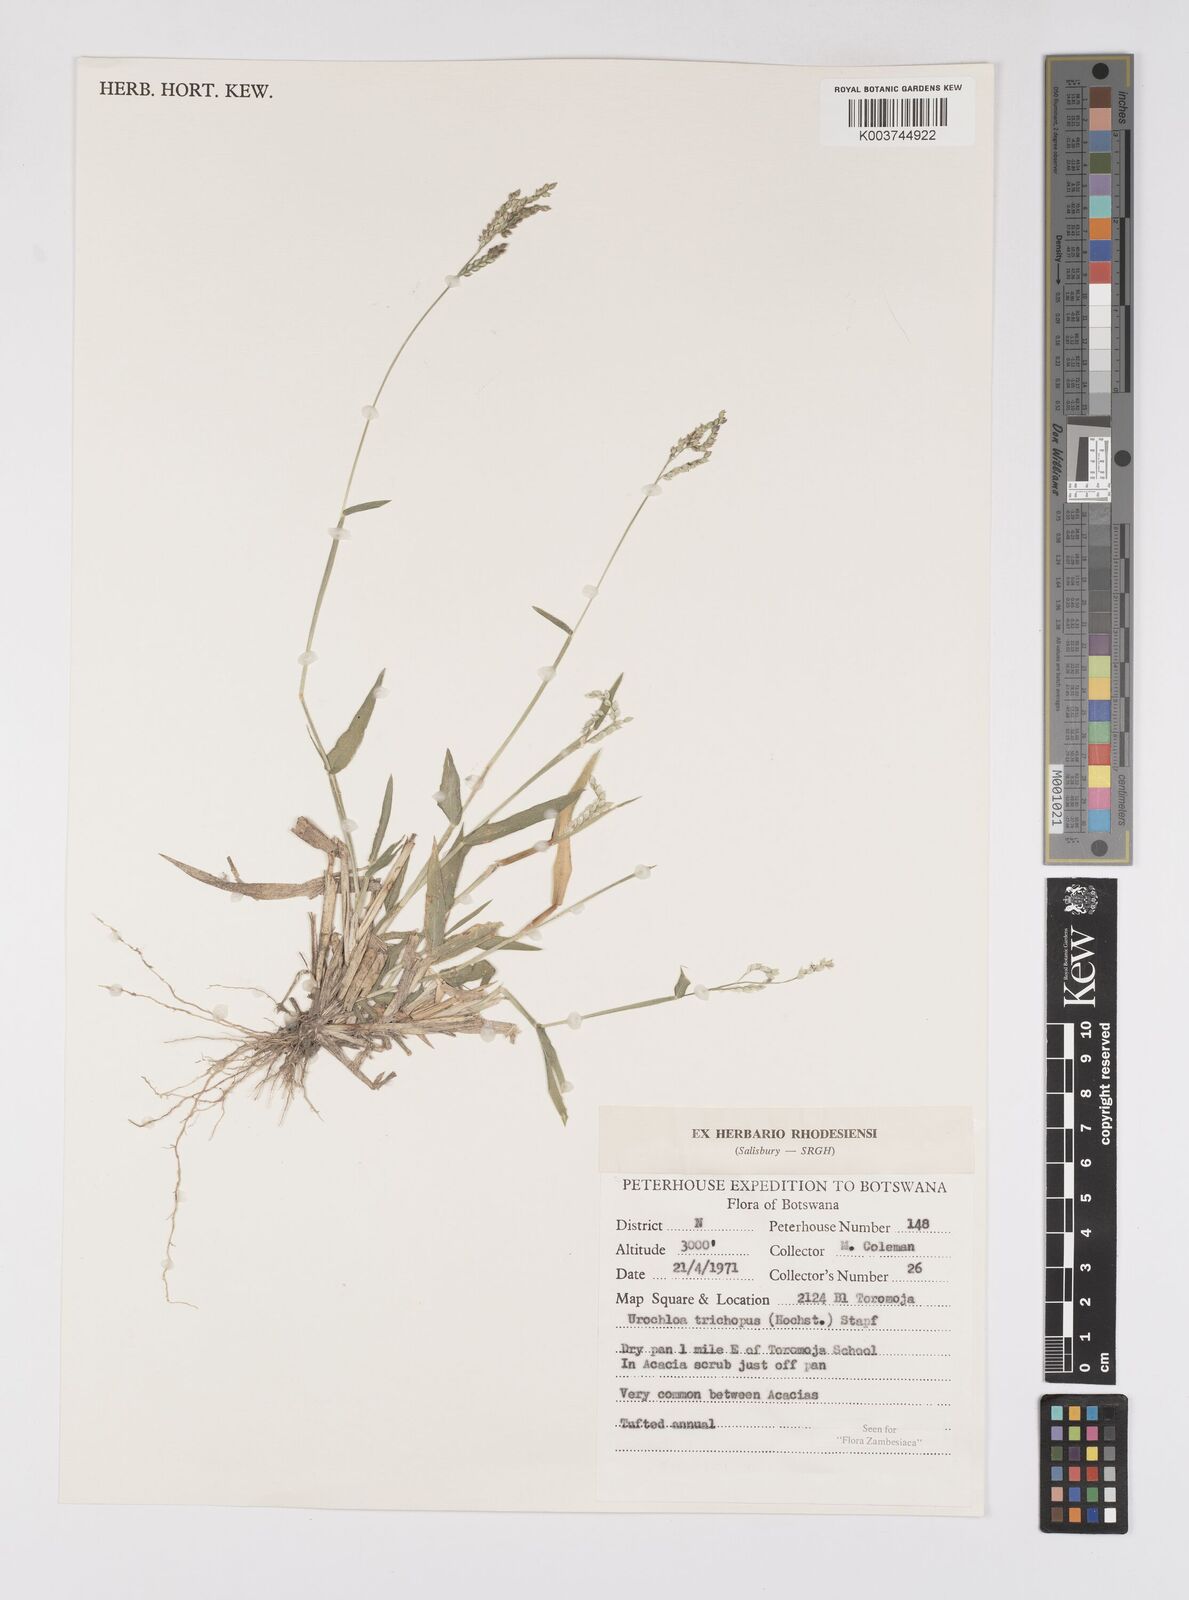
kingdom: Plantae
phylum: Tracheophyta
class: Liliopsida
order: Poales
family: Poaceae
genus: Urochloa
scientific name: Urochloa trichopus
